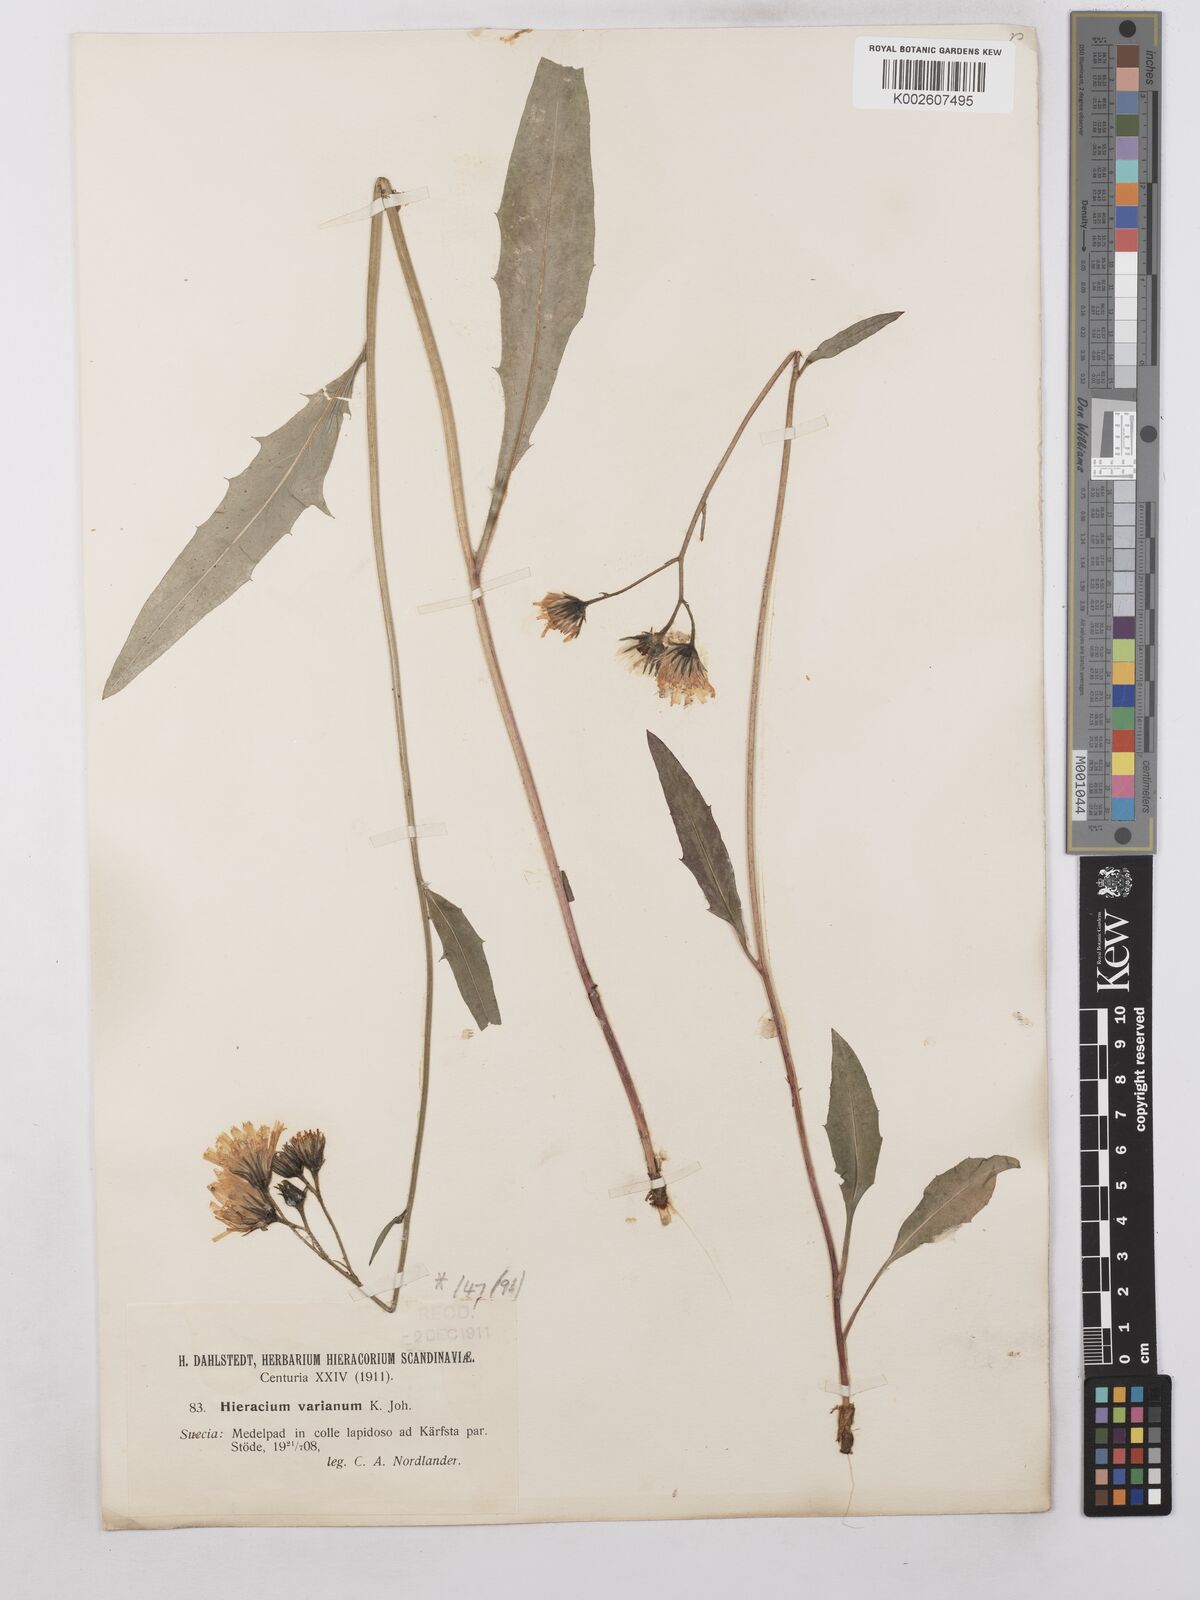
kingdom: Plantae
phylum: Tracheophyta
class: Magnoliopsida
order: Asterales
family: Asteraceae
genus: Hieracium
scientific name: Hieracium caesium
